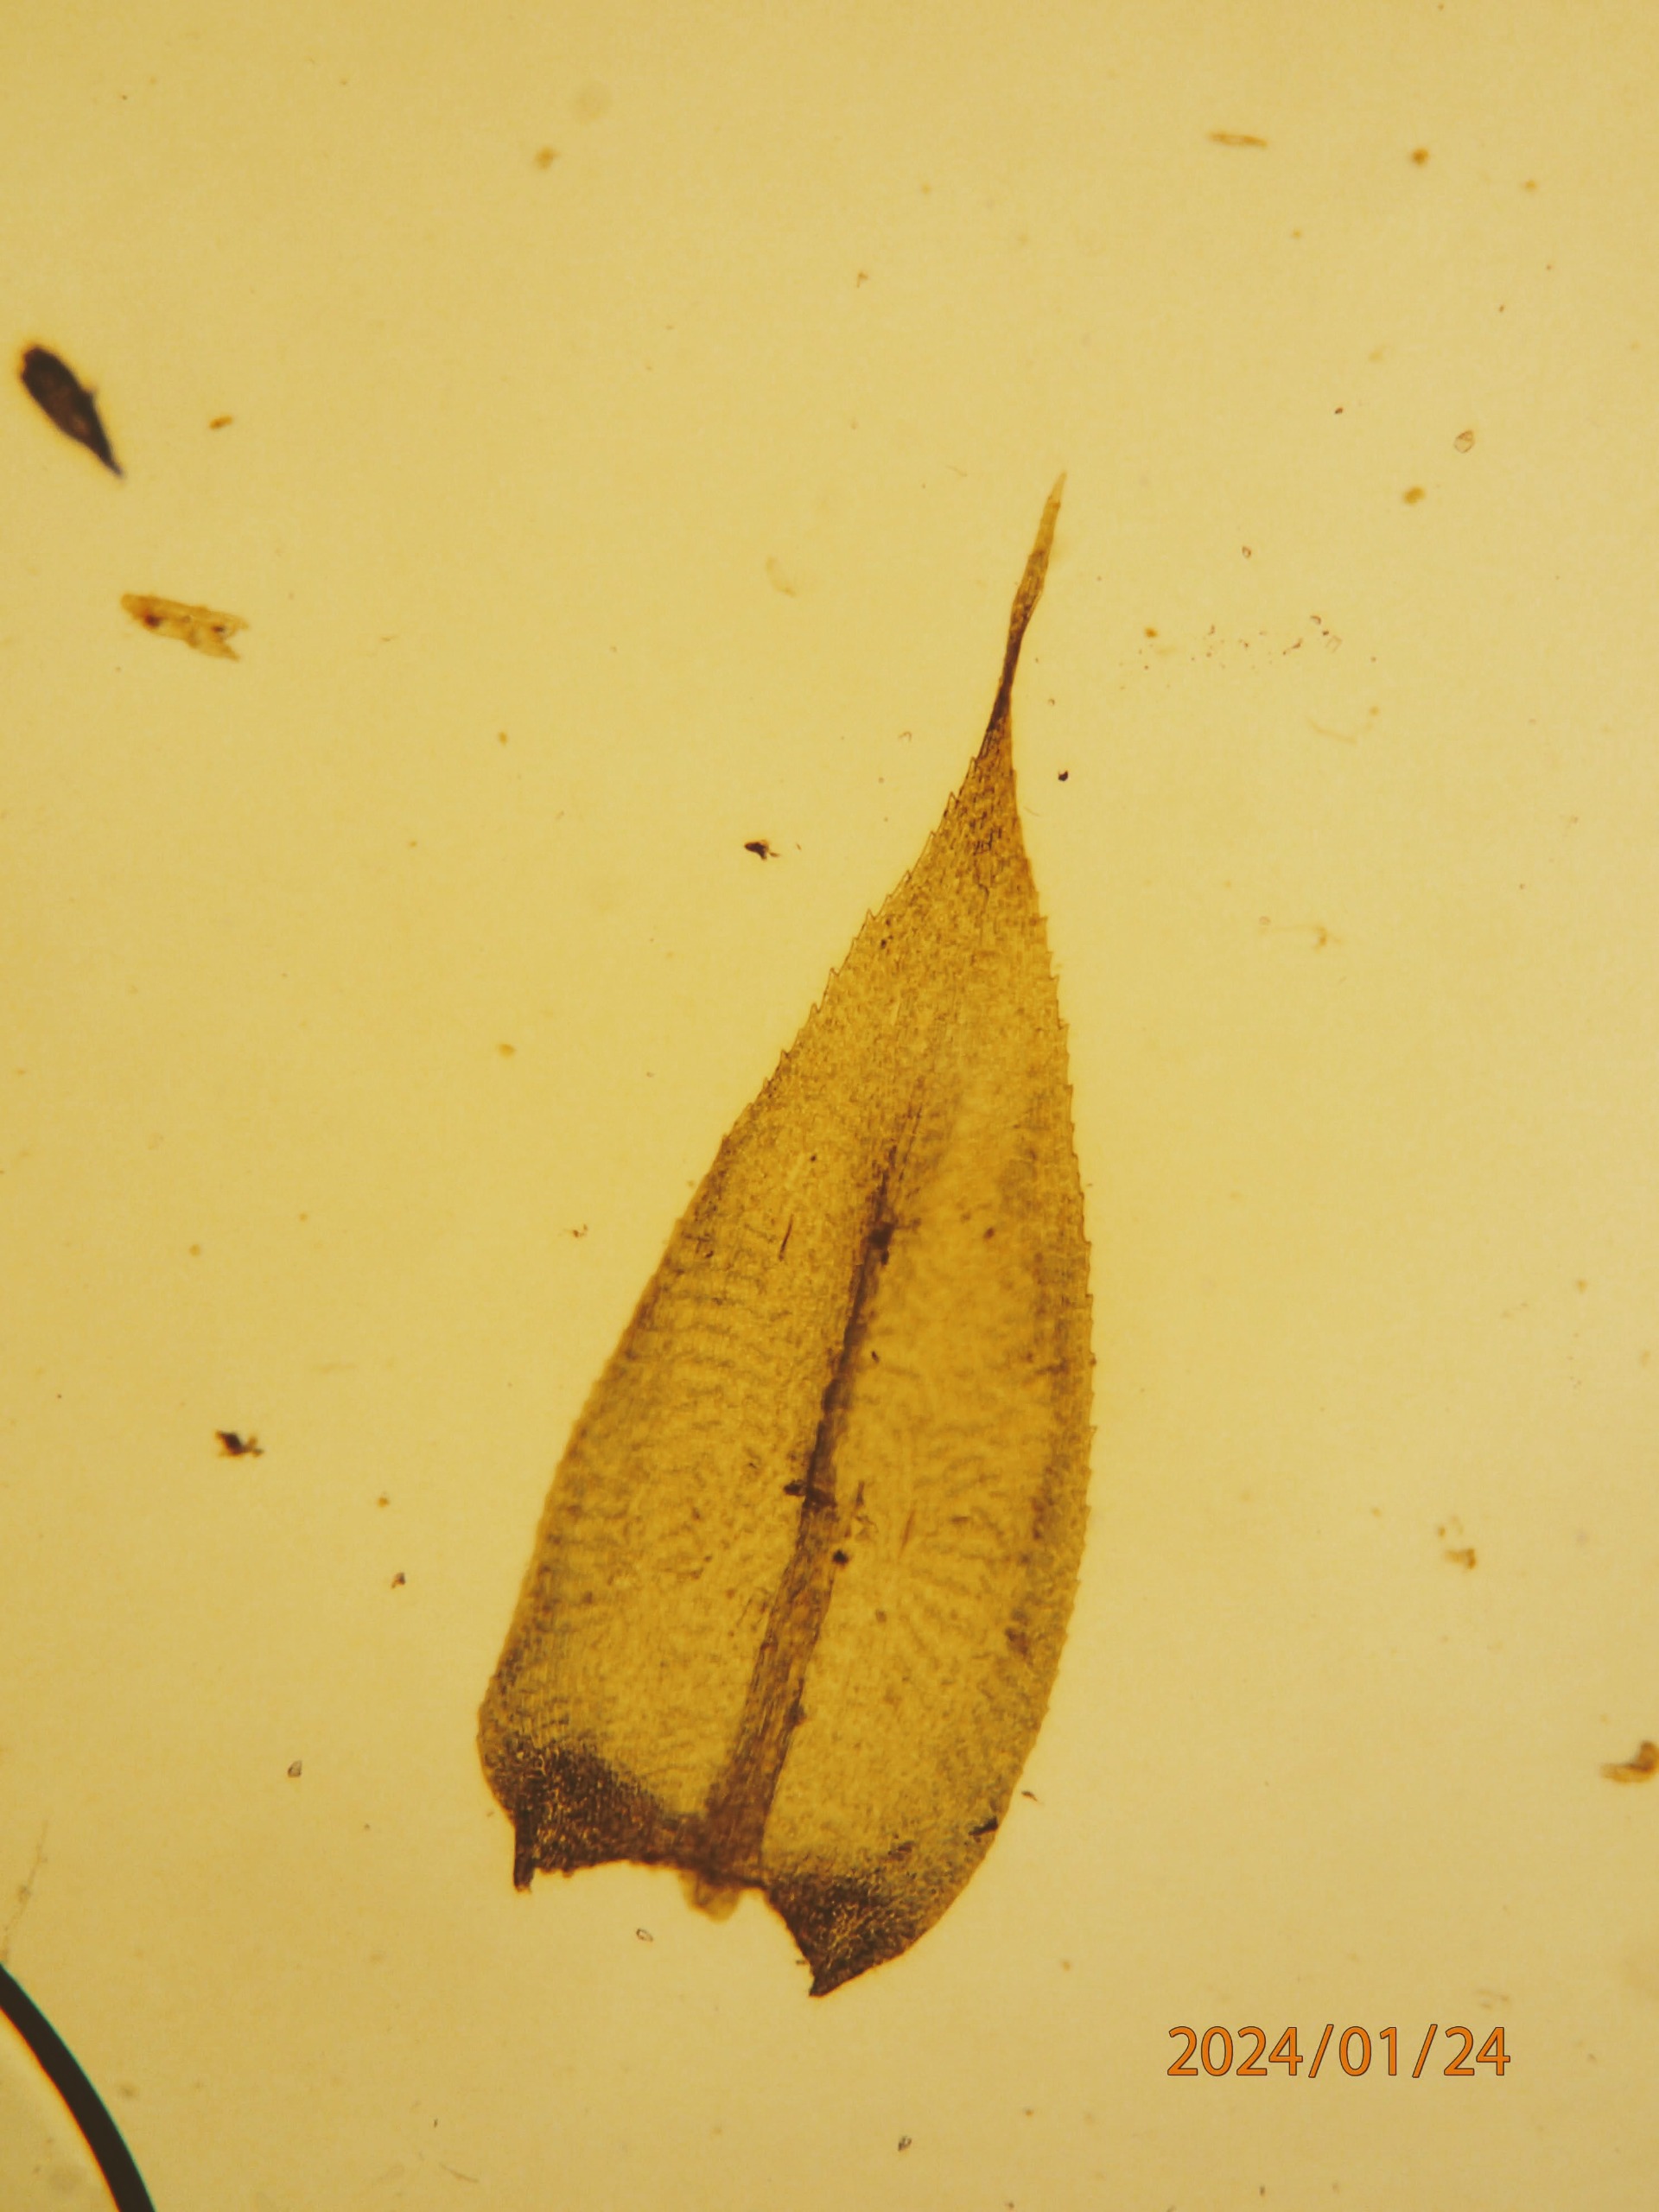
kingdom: Plantae
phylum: Bryophyta
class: Bryopsida
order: Hypnales
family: Lembophyllaceae
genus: Pseudisothecium
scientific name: Pseudisothecium myosuroides
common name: Slank stammemos
